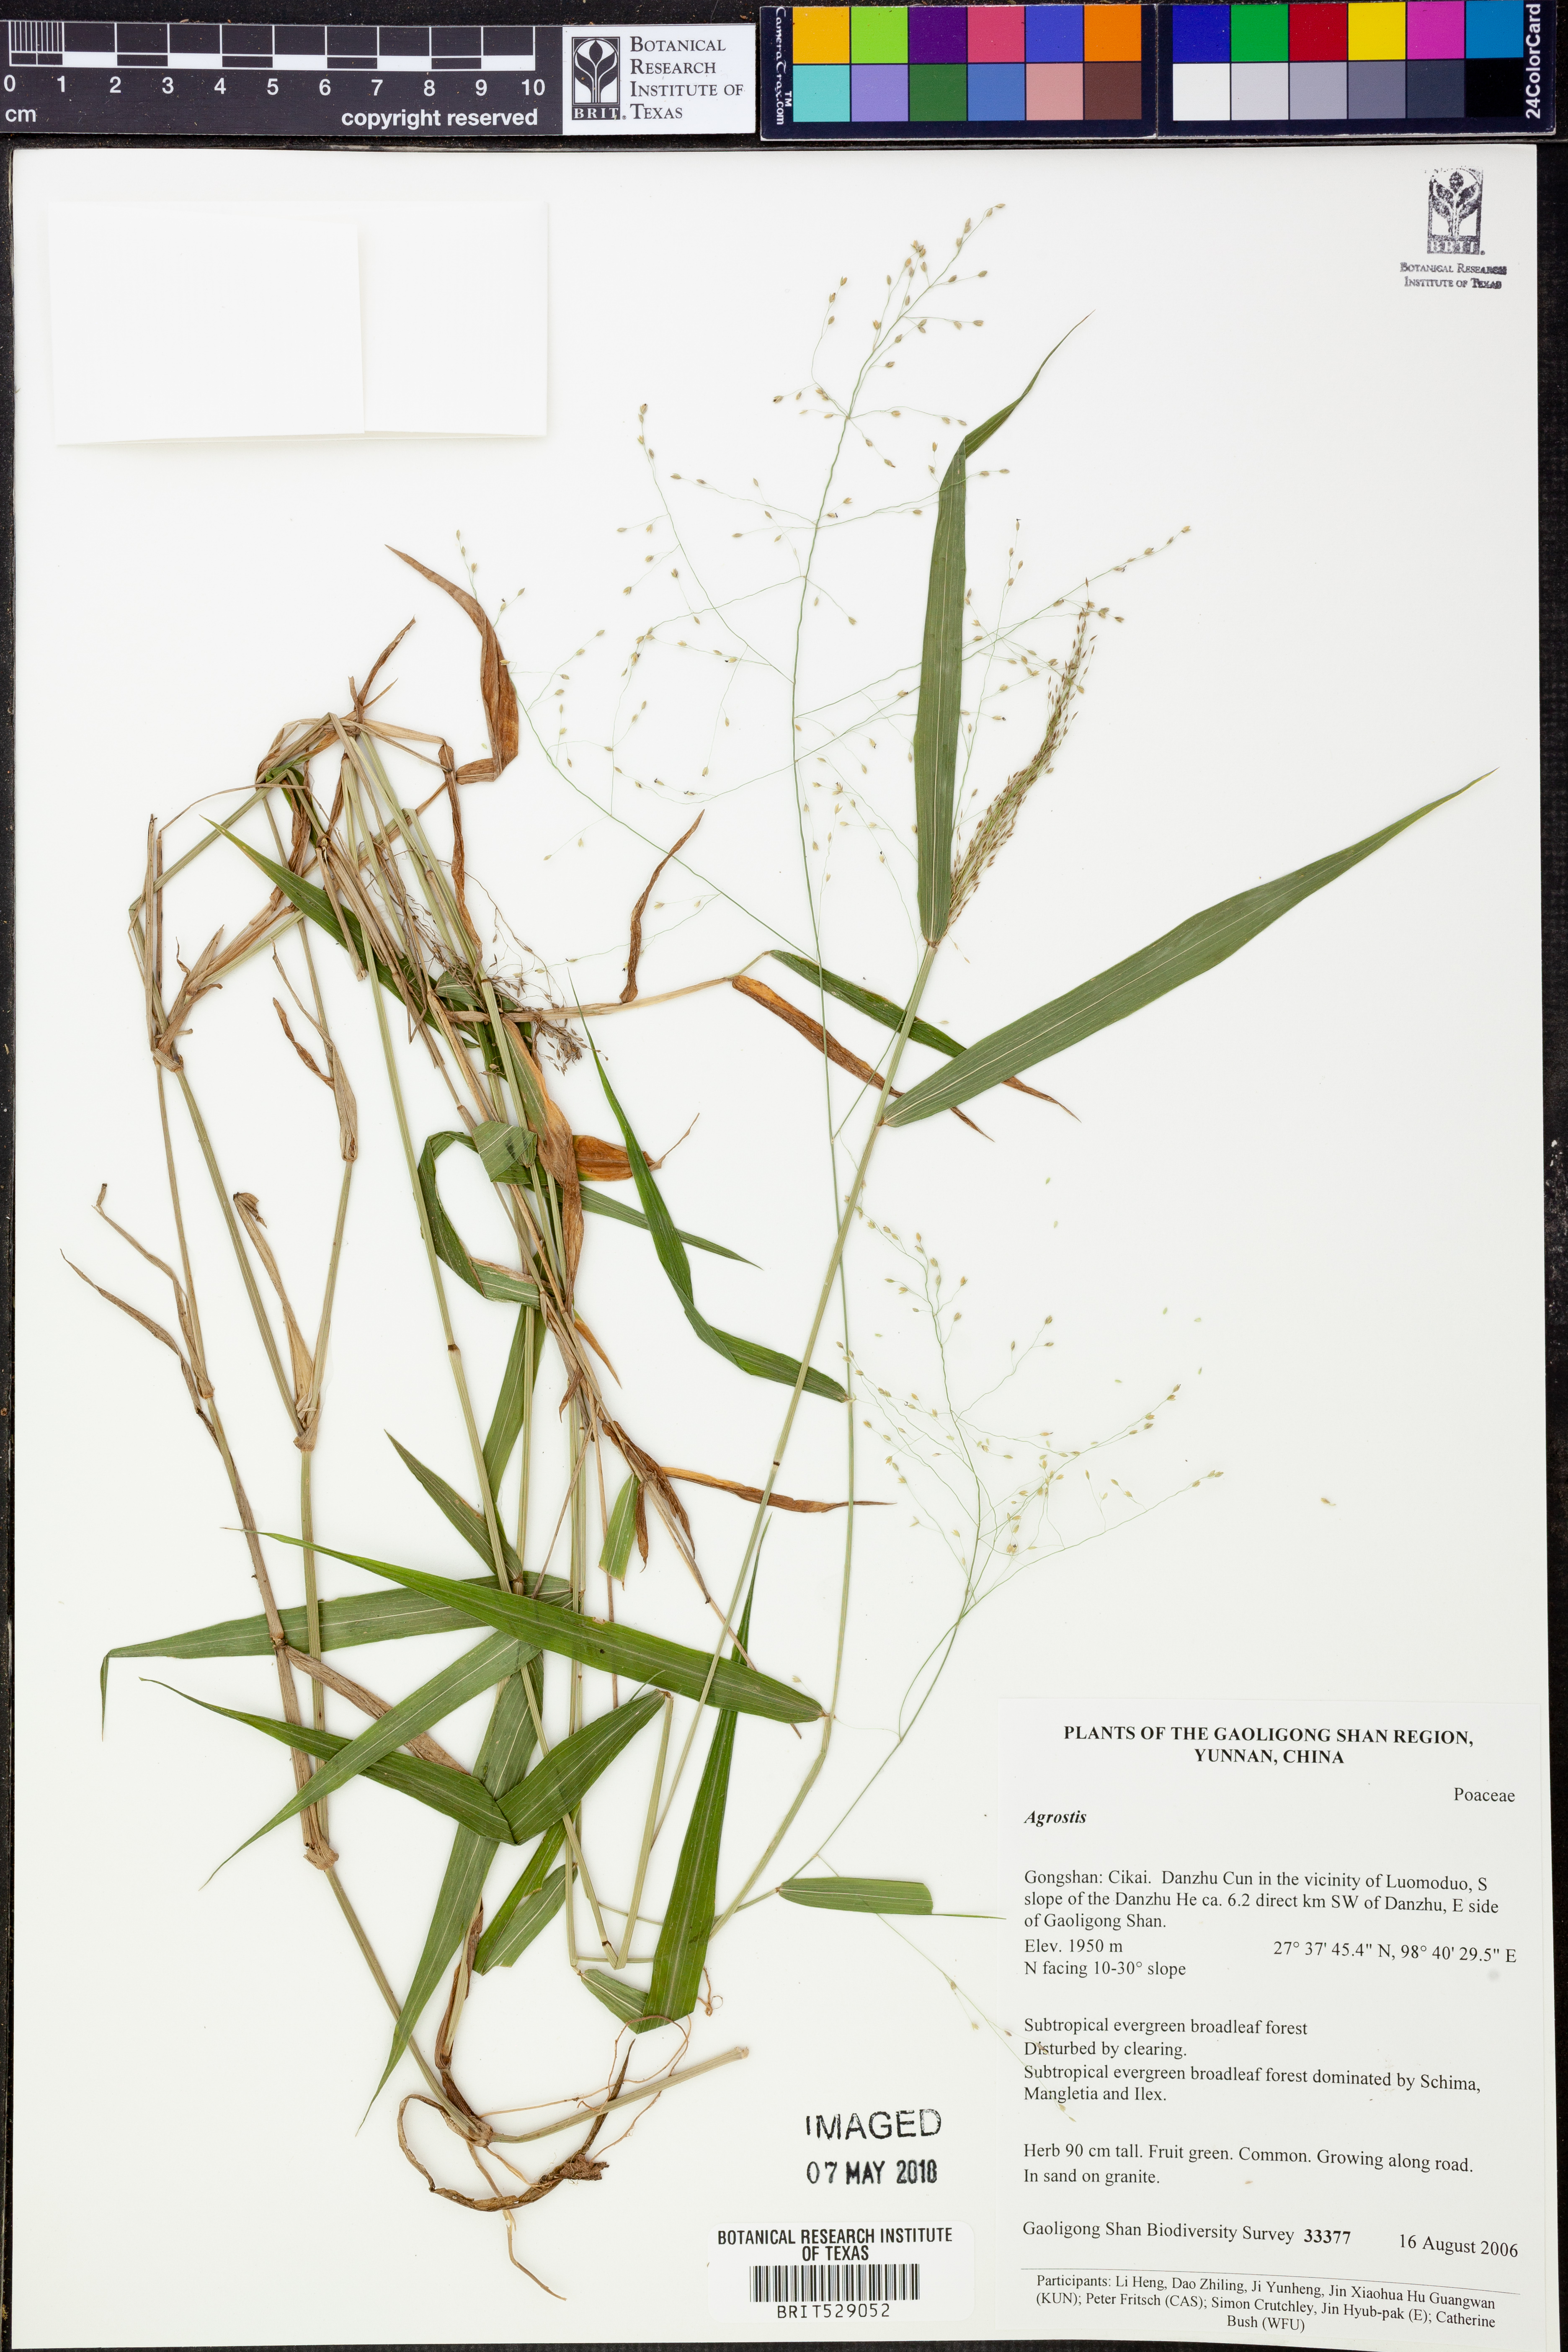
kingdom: Plantae
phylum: Tracheophyta
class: Liliopsida
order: Poales
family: Poaceae
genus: Agrostis
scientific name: Agrostis
